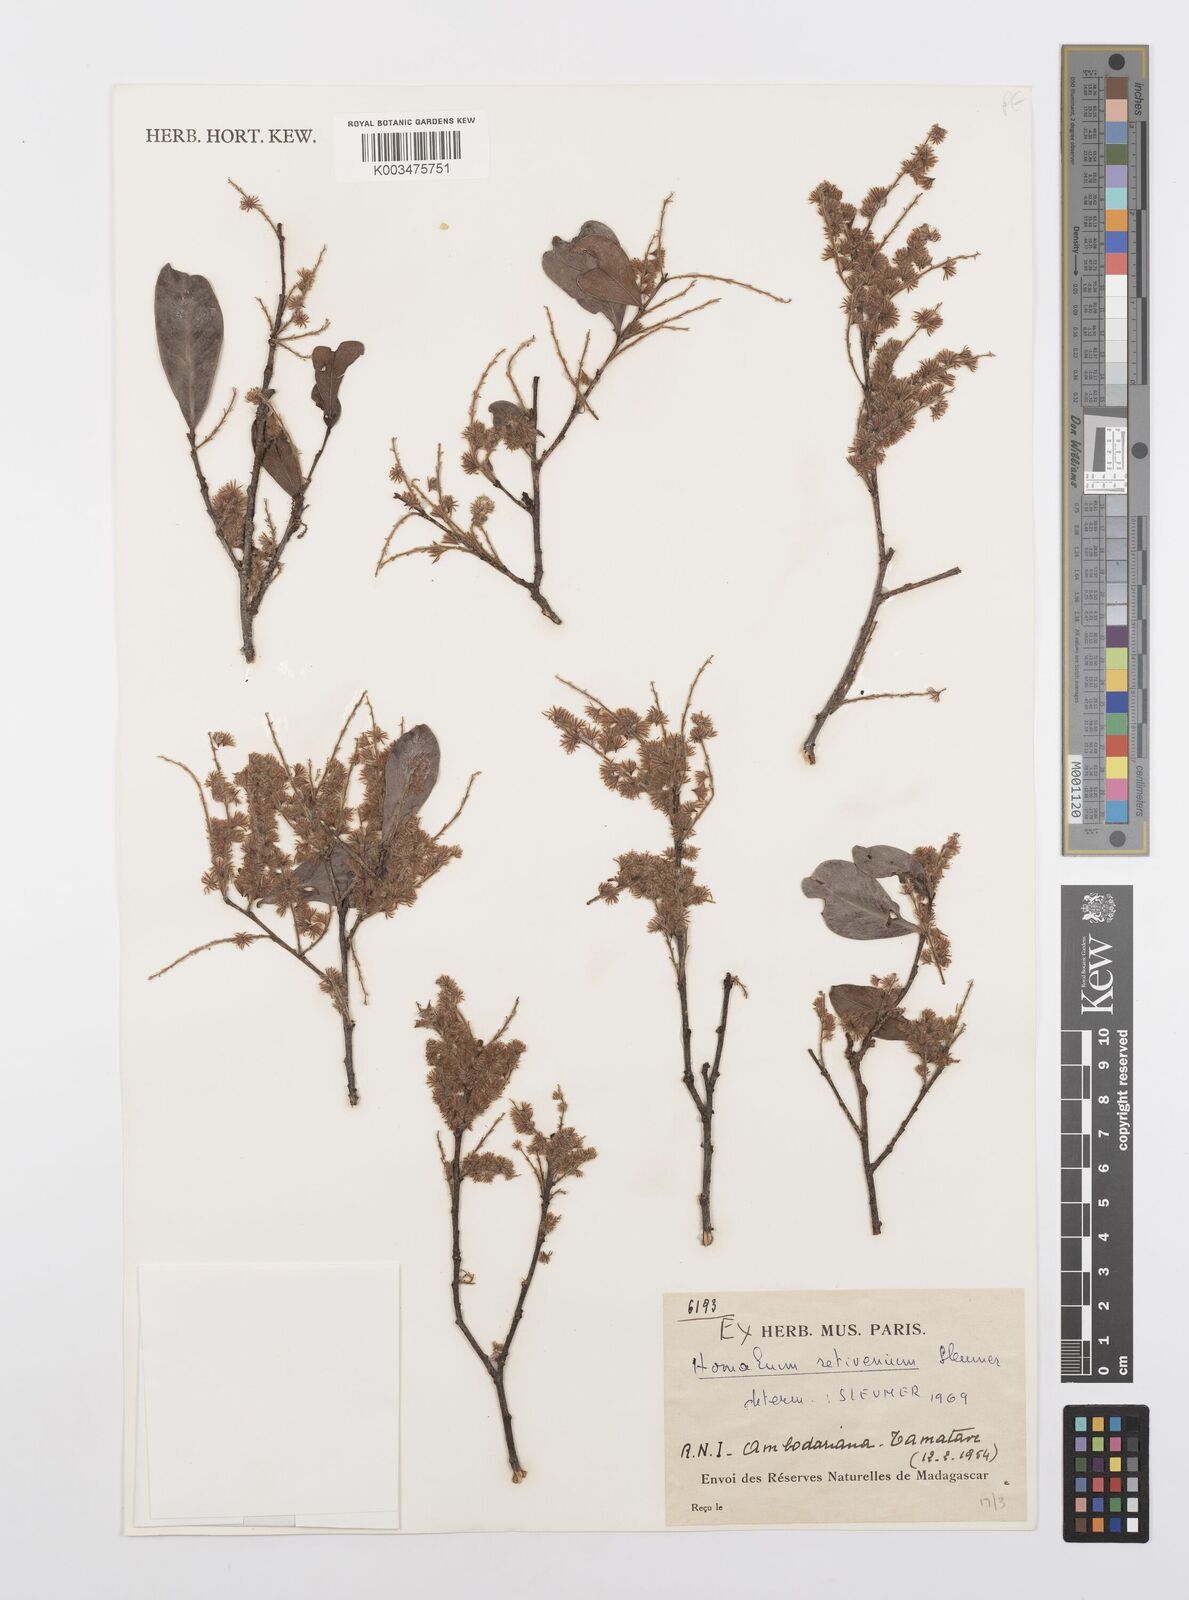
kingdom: Plantae
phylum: Tracheophyta
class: Magnoliopsida
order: Malpighiales
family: Salicaceae
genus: Homalium
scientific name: Homalium retivenium
